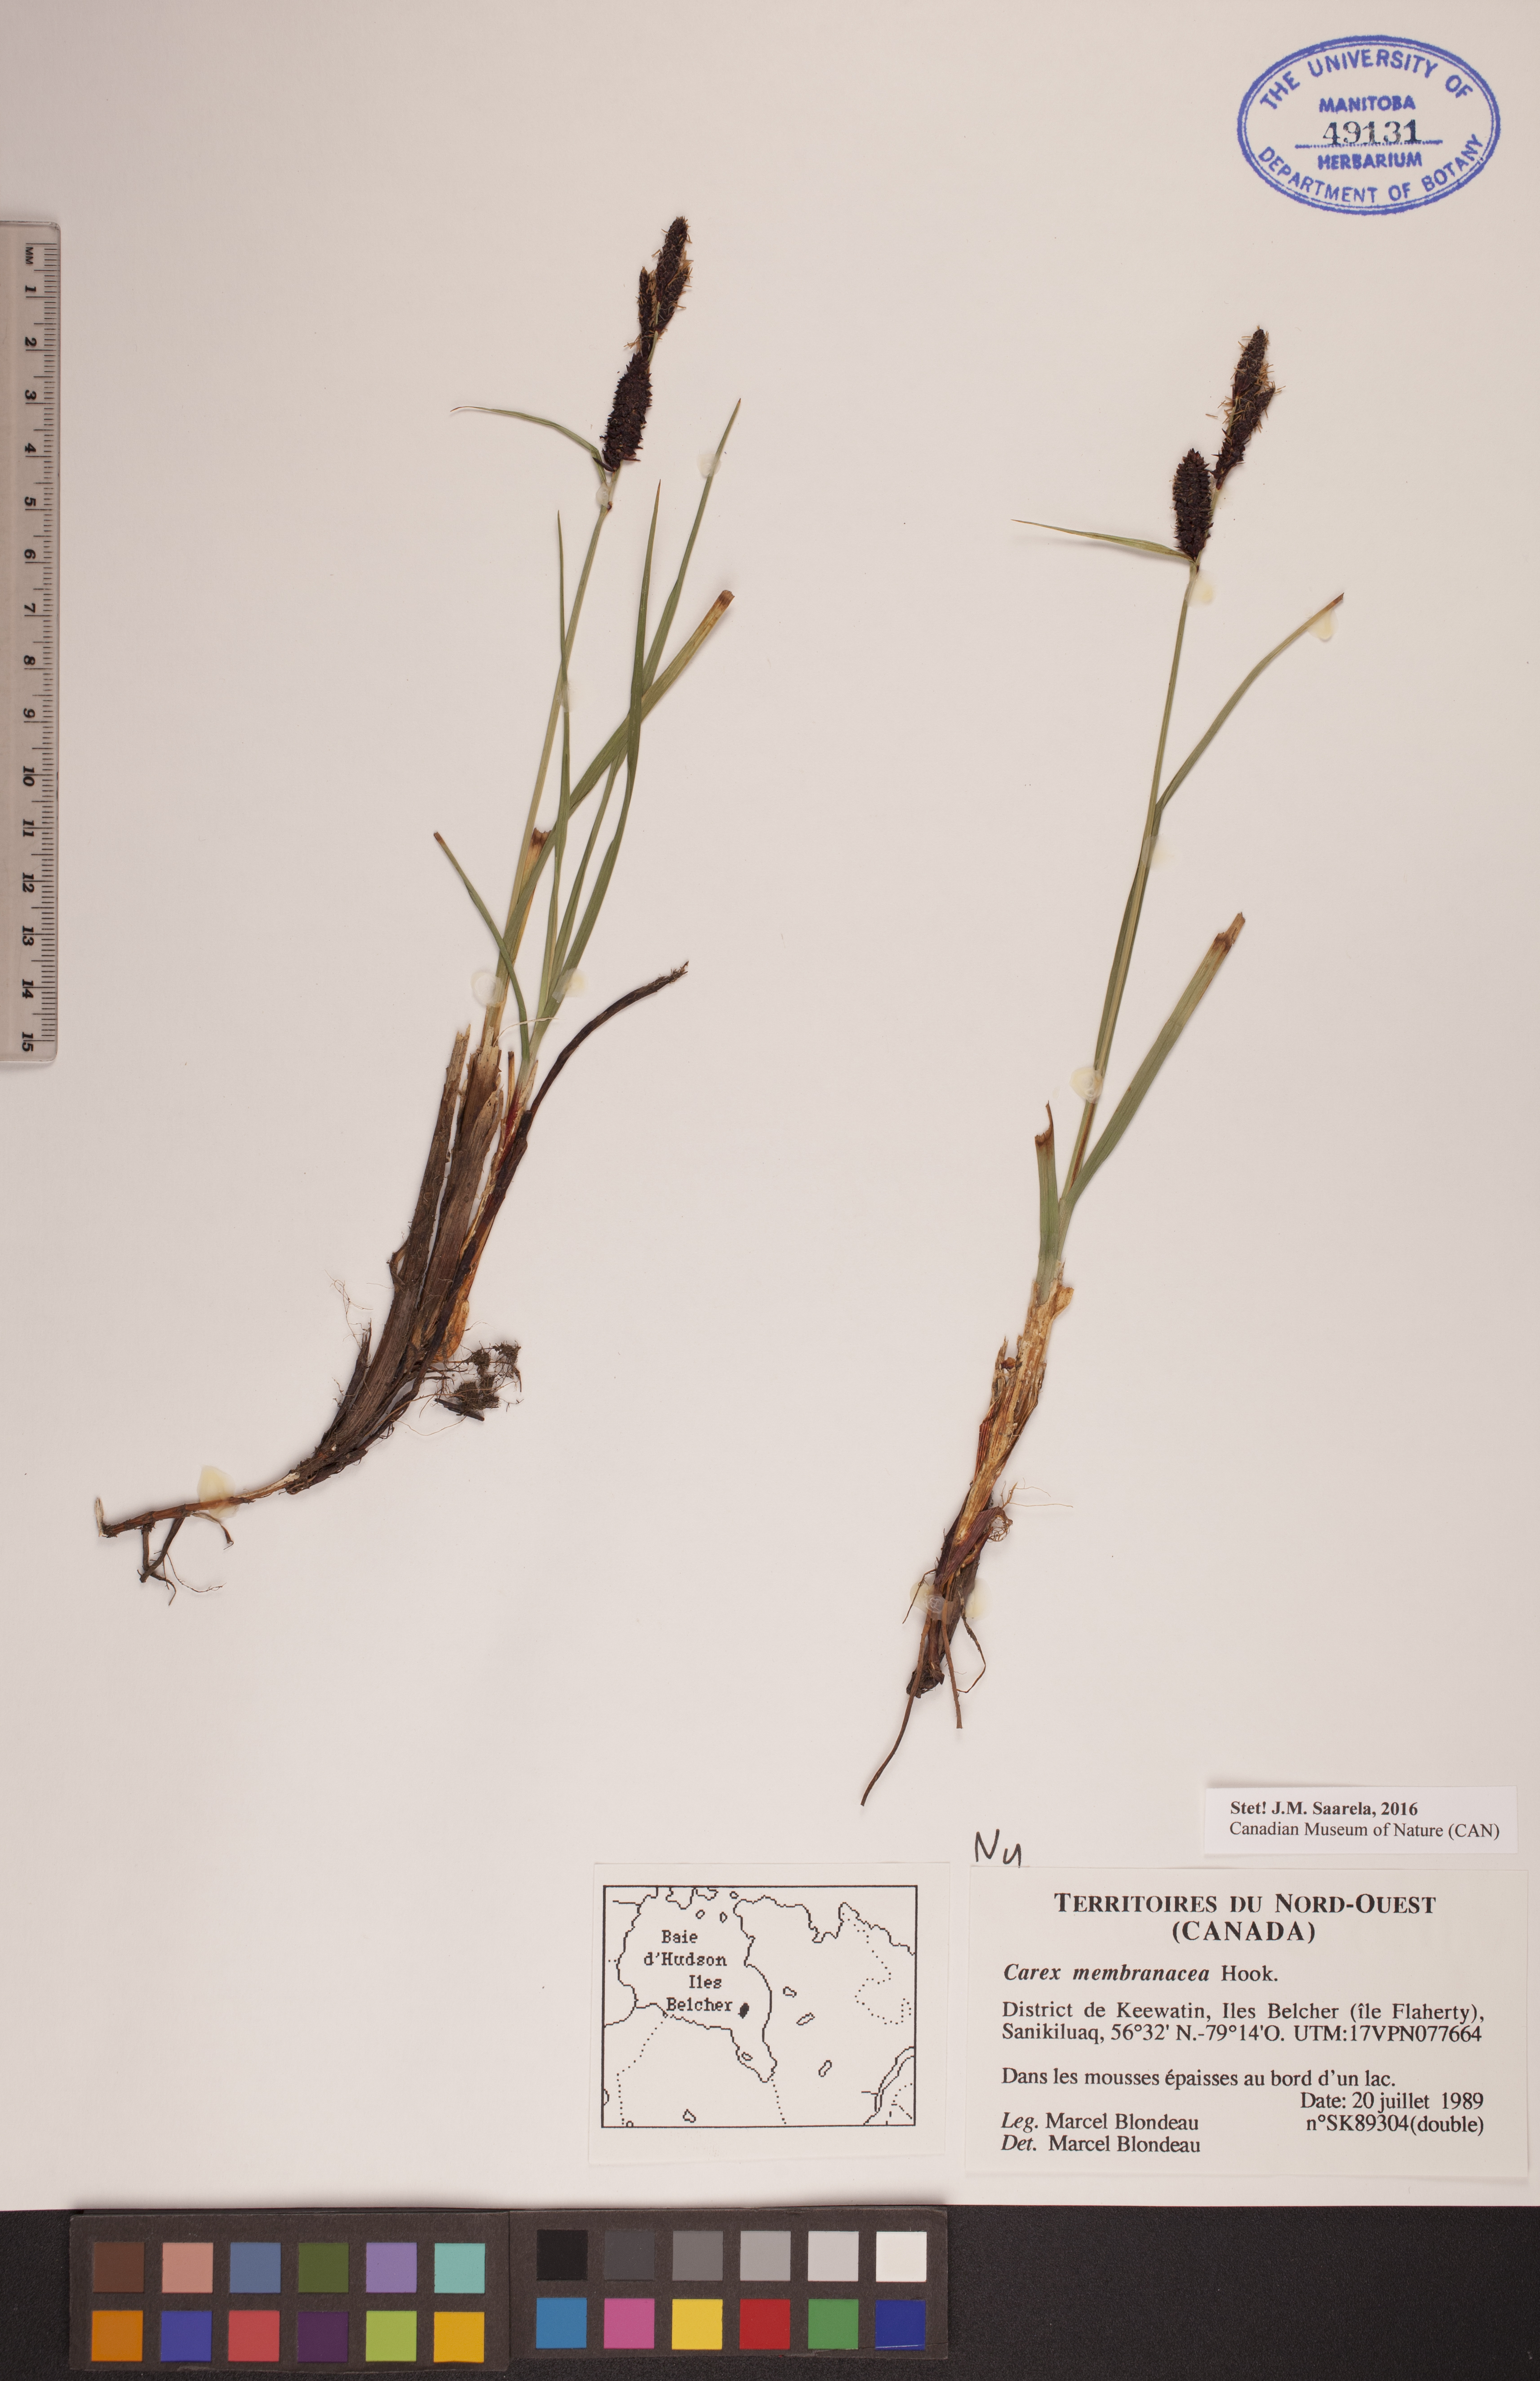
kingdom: Plantae
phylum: Tracheophyta
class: Liliopsida
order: Poales
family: Cyperaceae
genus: Carex
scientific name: Carex membranacea
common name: Fragile sedge
